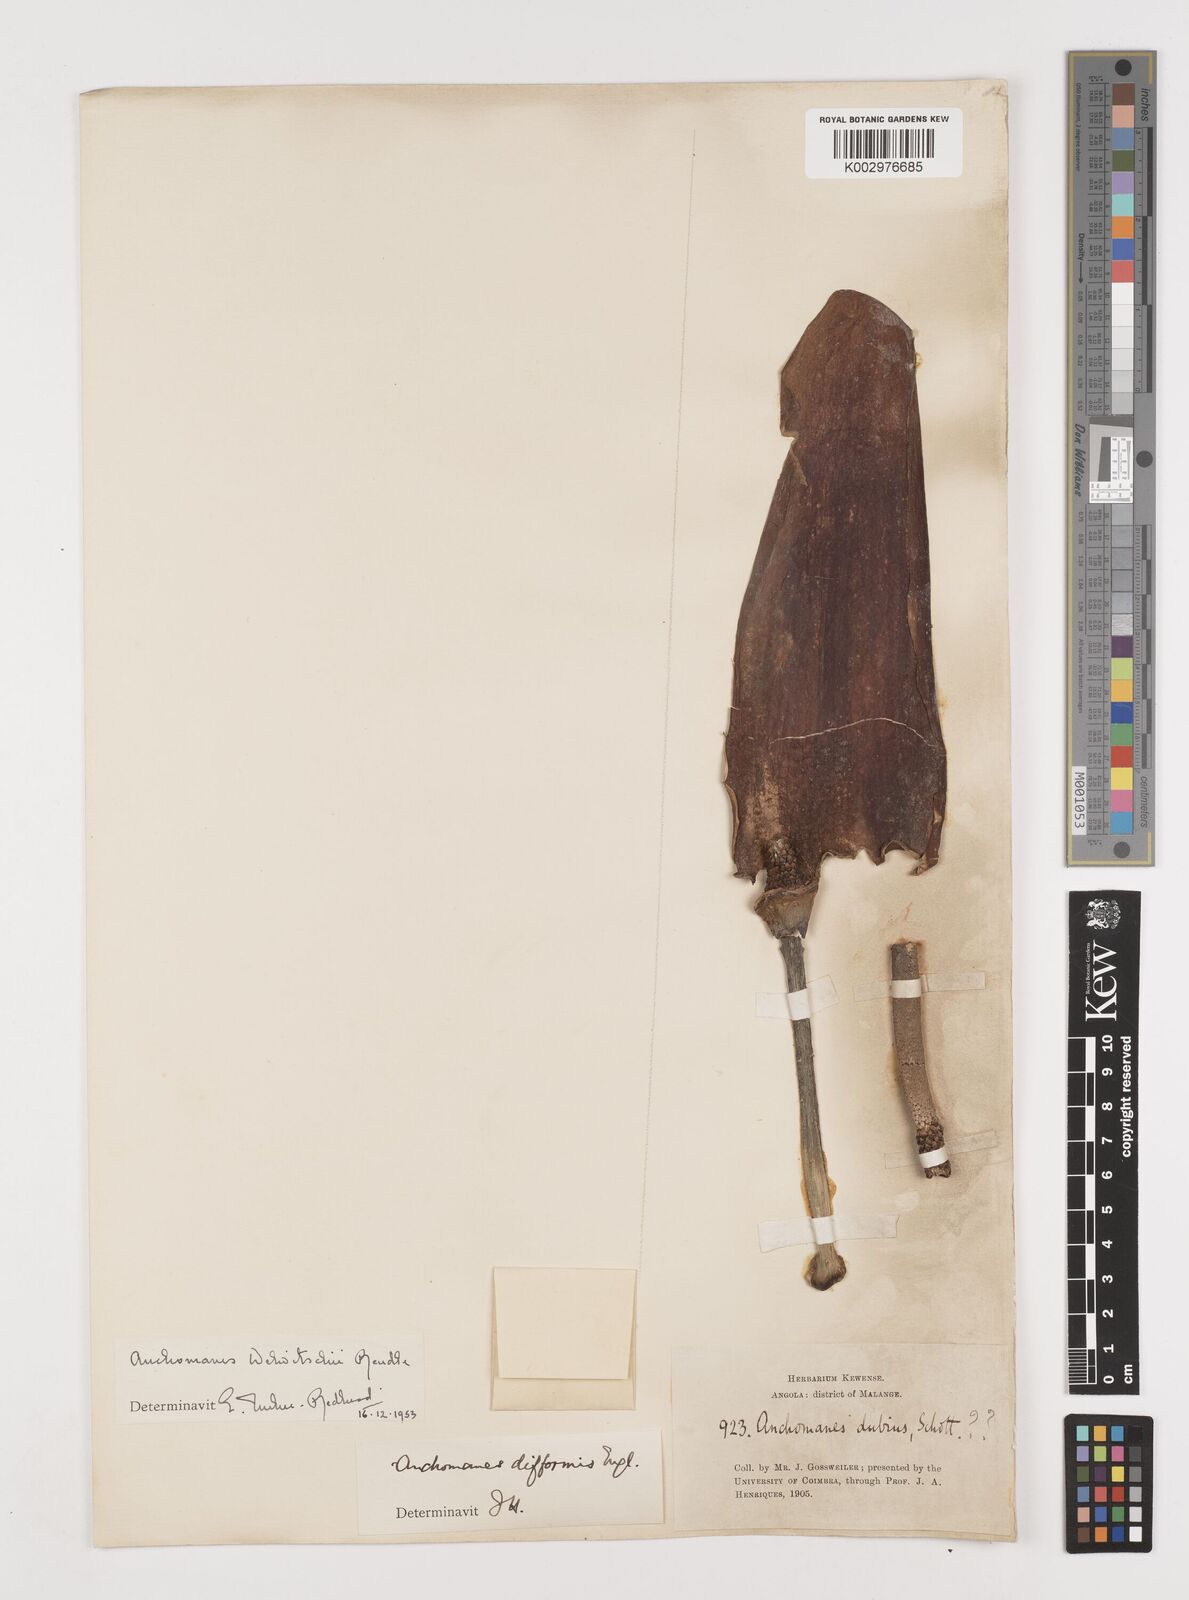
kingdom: Plantae
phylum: Tracheophyta
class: Liliopsida
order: Alismatales
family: Araceae
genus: Anchomanes
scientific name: Anchomanes difformis
